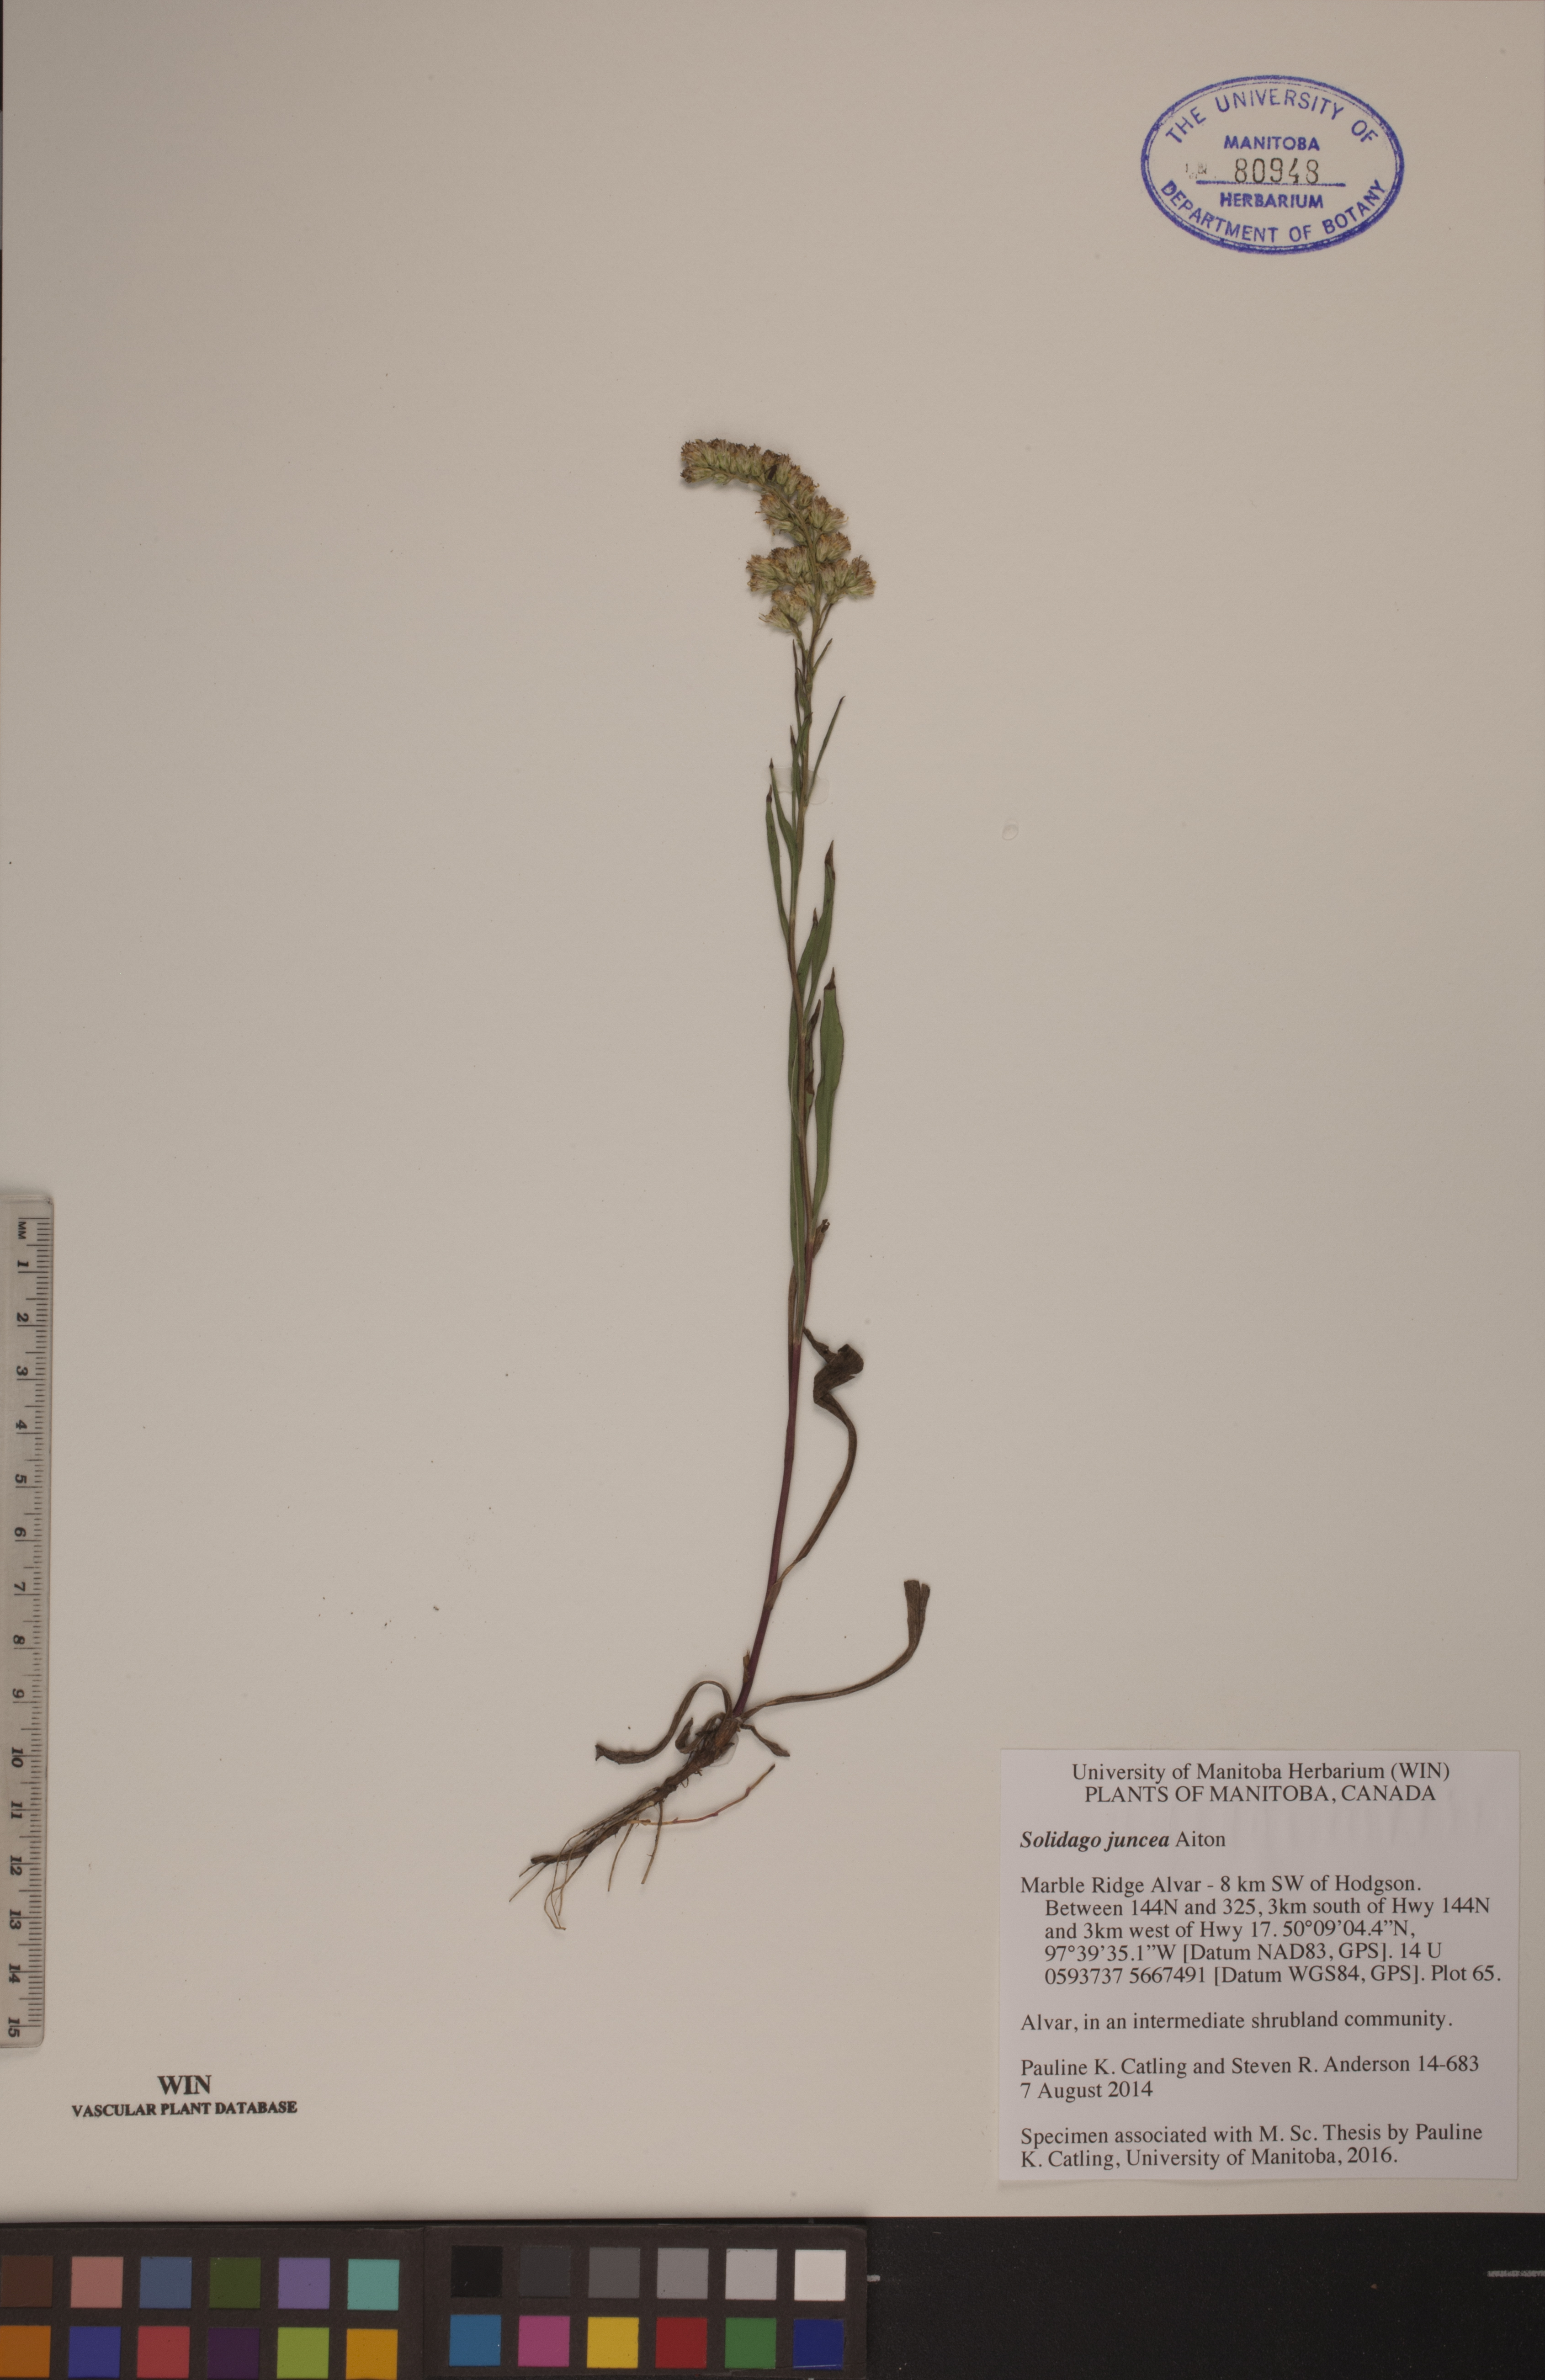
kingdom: Plantae
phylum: Tracheophyta
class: Magnoliopsida
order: Asterales
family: Asteraceae
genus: Solidago
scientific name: Solidago juncea
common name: Early goldenrod
